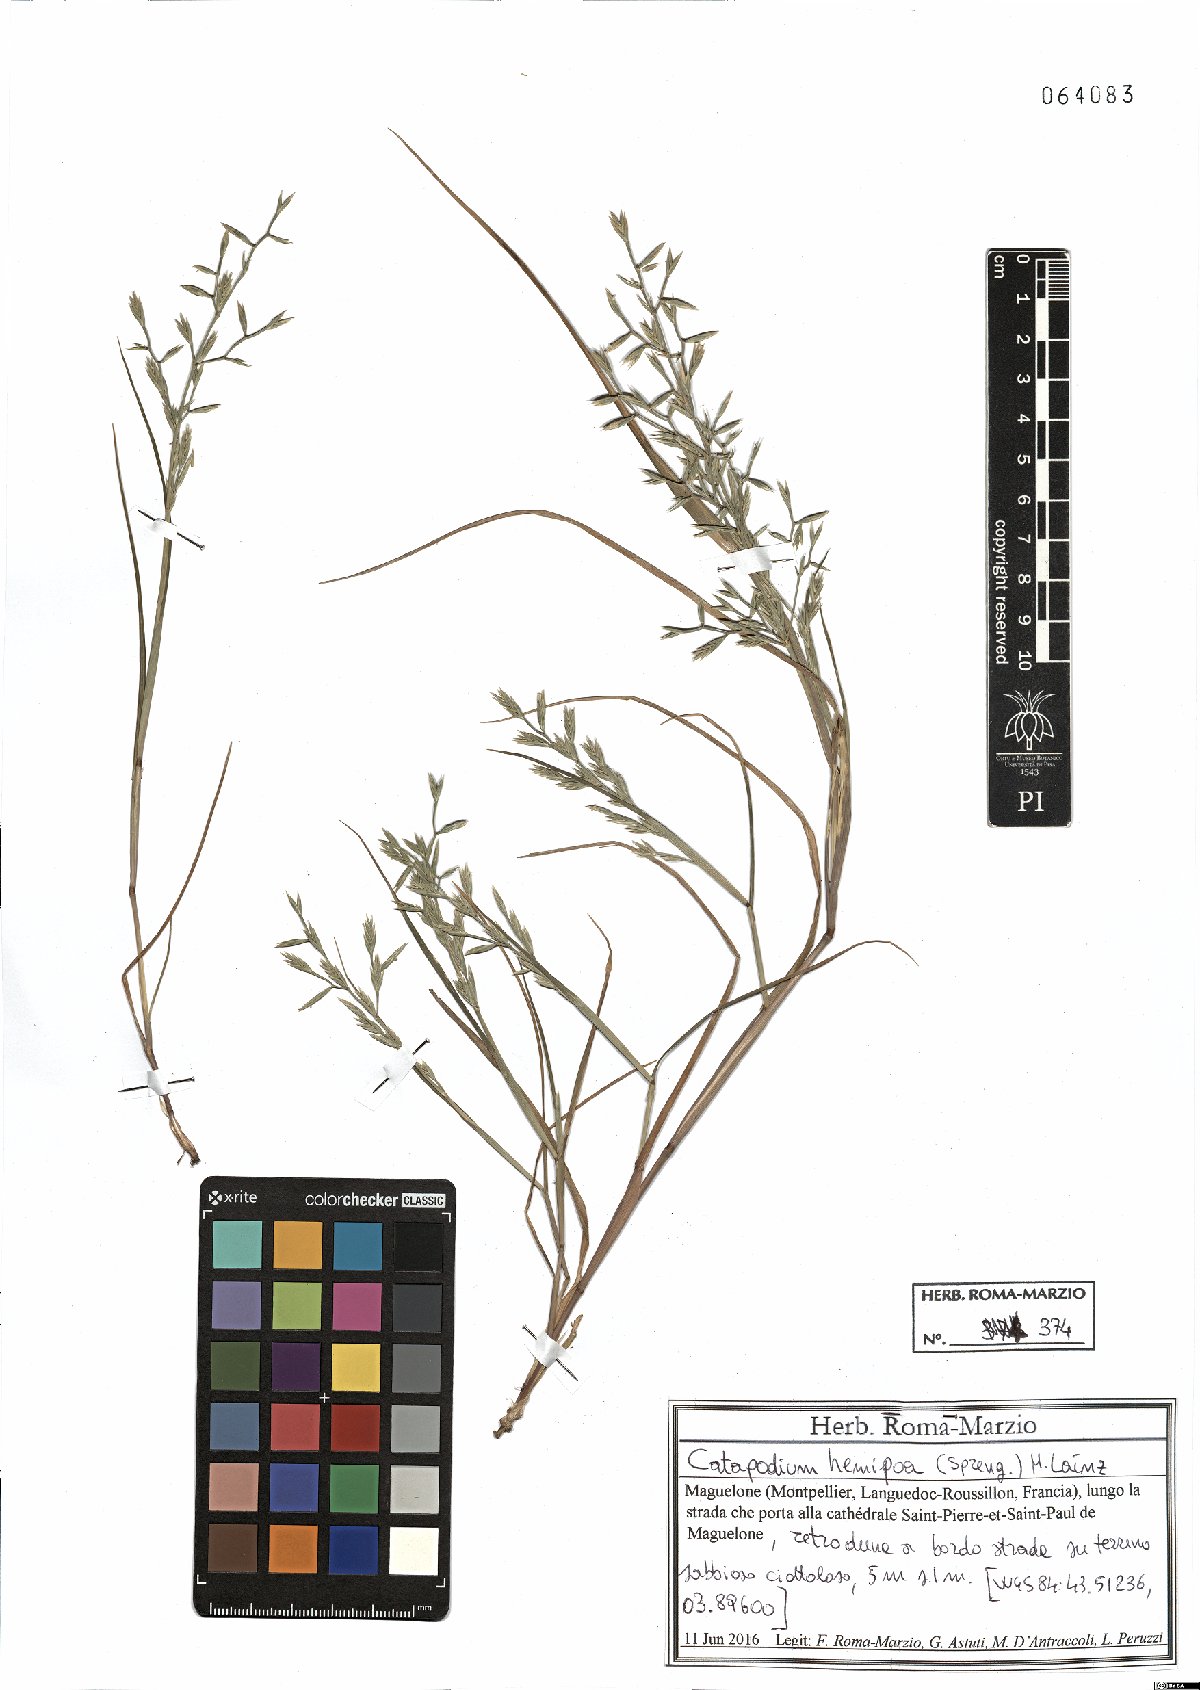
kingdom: Plantae
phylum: Tracheophyta
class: Liliopsida
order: Poales
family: Poaceae
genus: Catapodium
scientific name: Catapodium hemipoa
